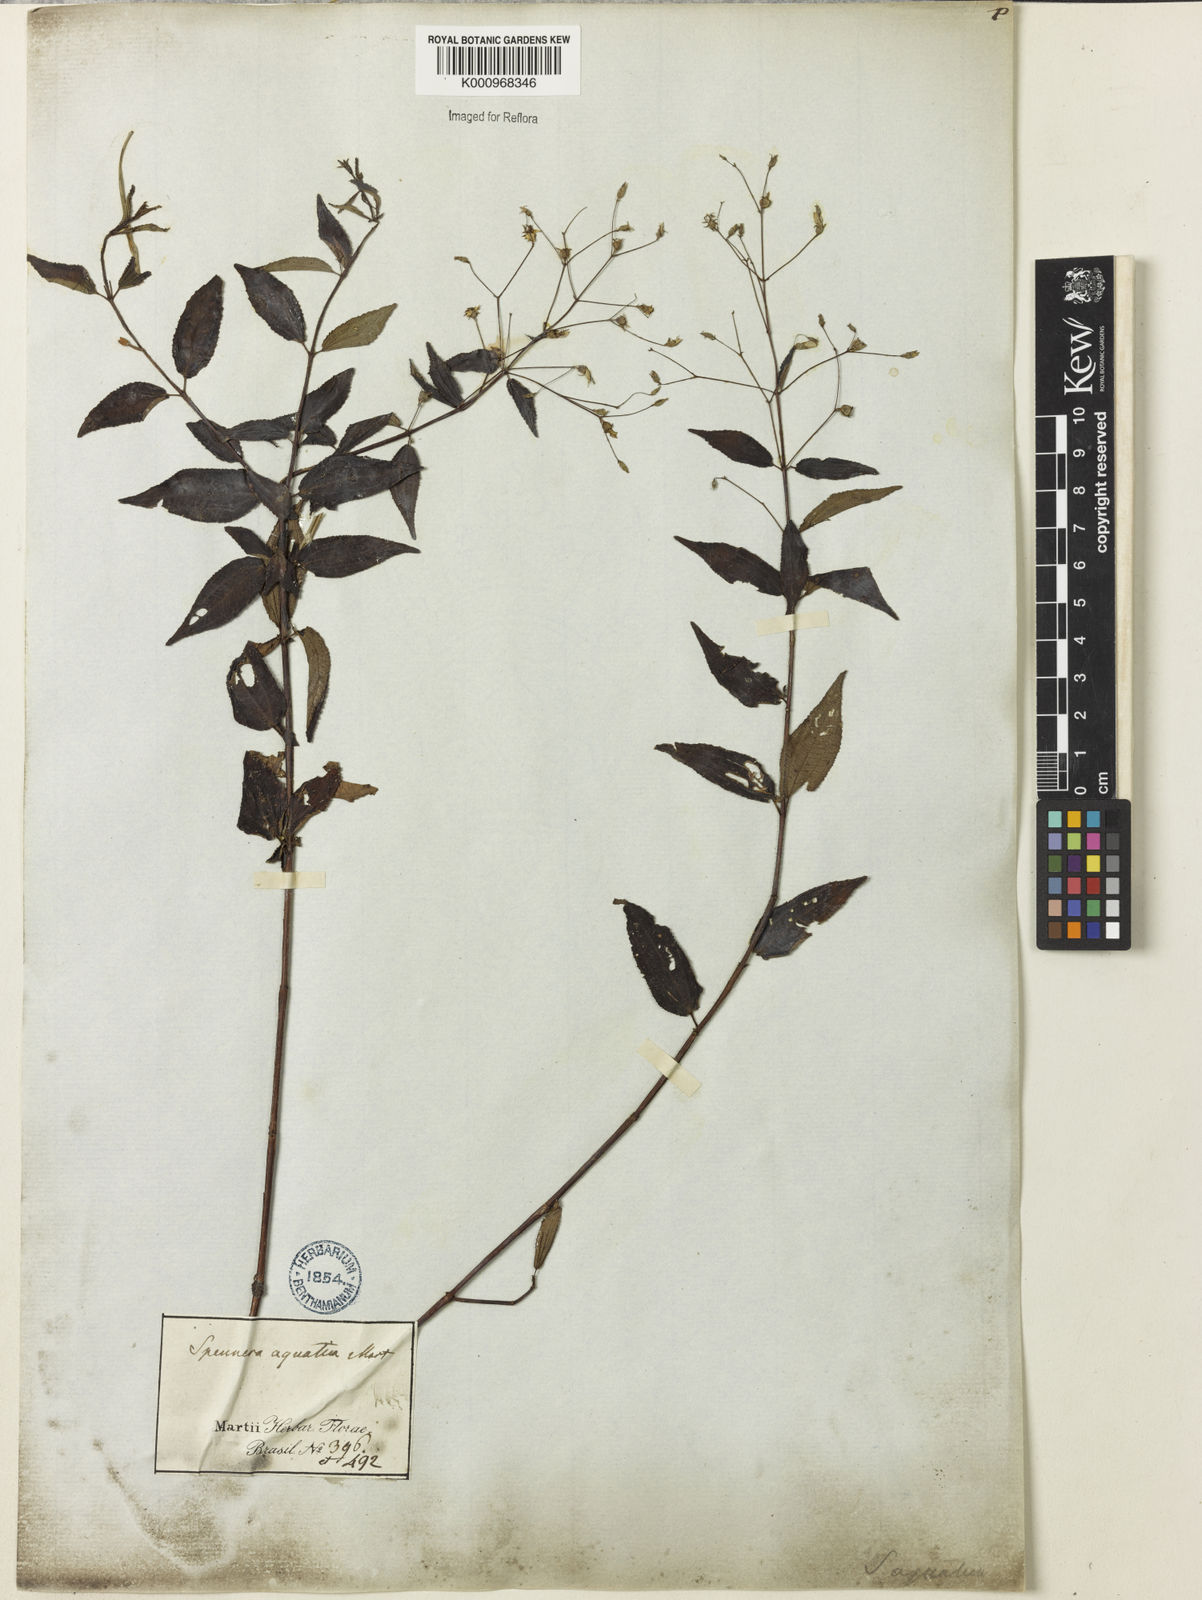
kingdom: Plantae
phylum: Tracheophyta
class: Magnoliopsida
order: Myrtales
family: Melastomataceae
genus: Nepsera
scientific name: Nepsera aquatica
